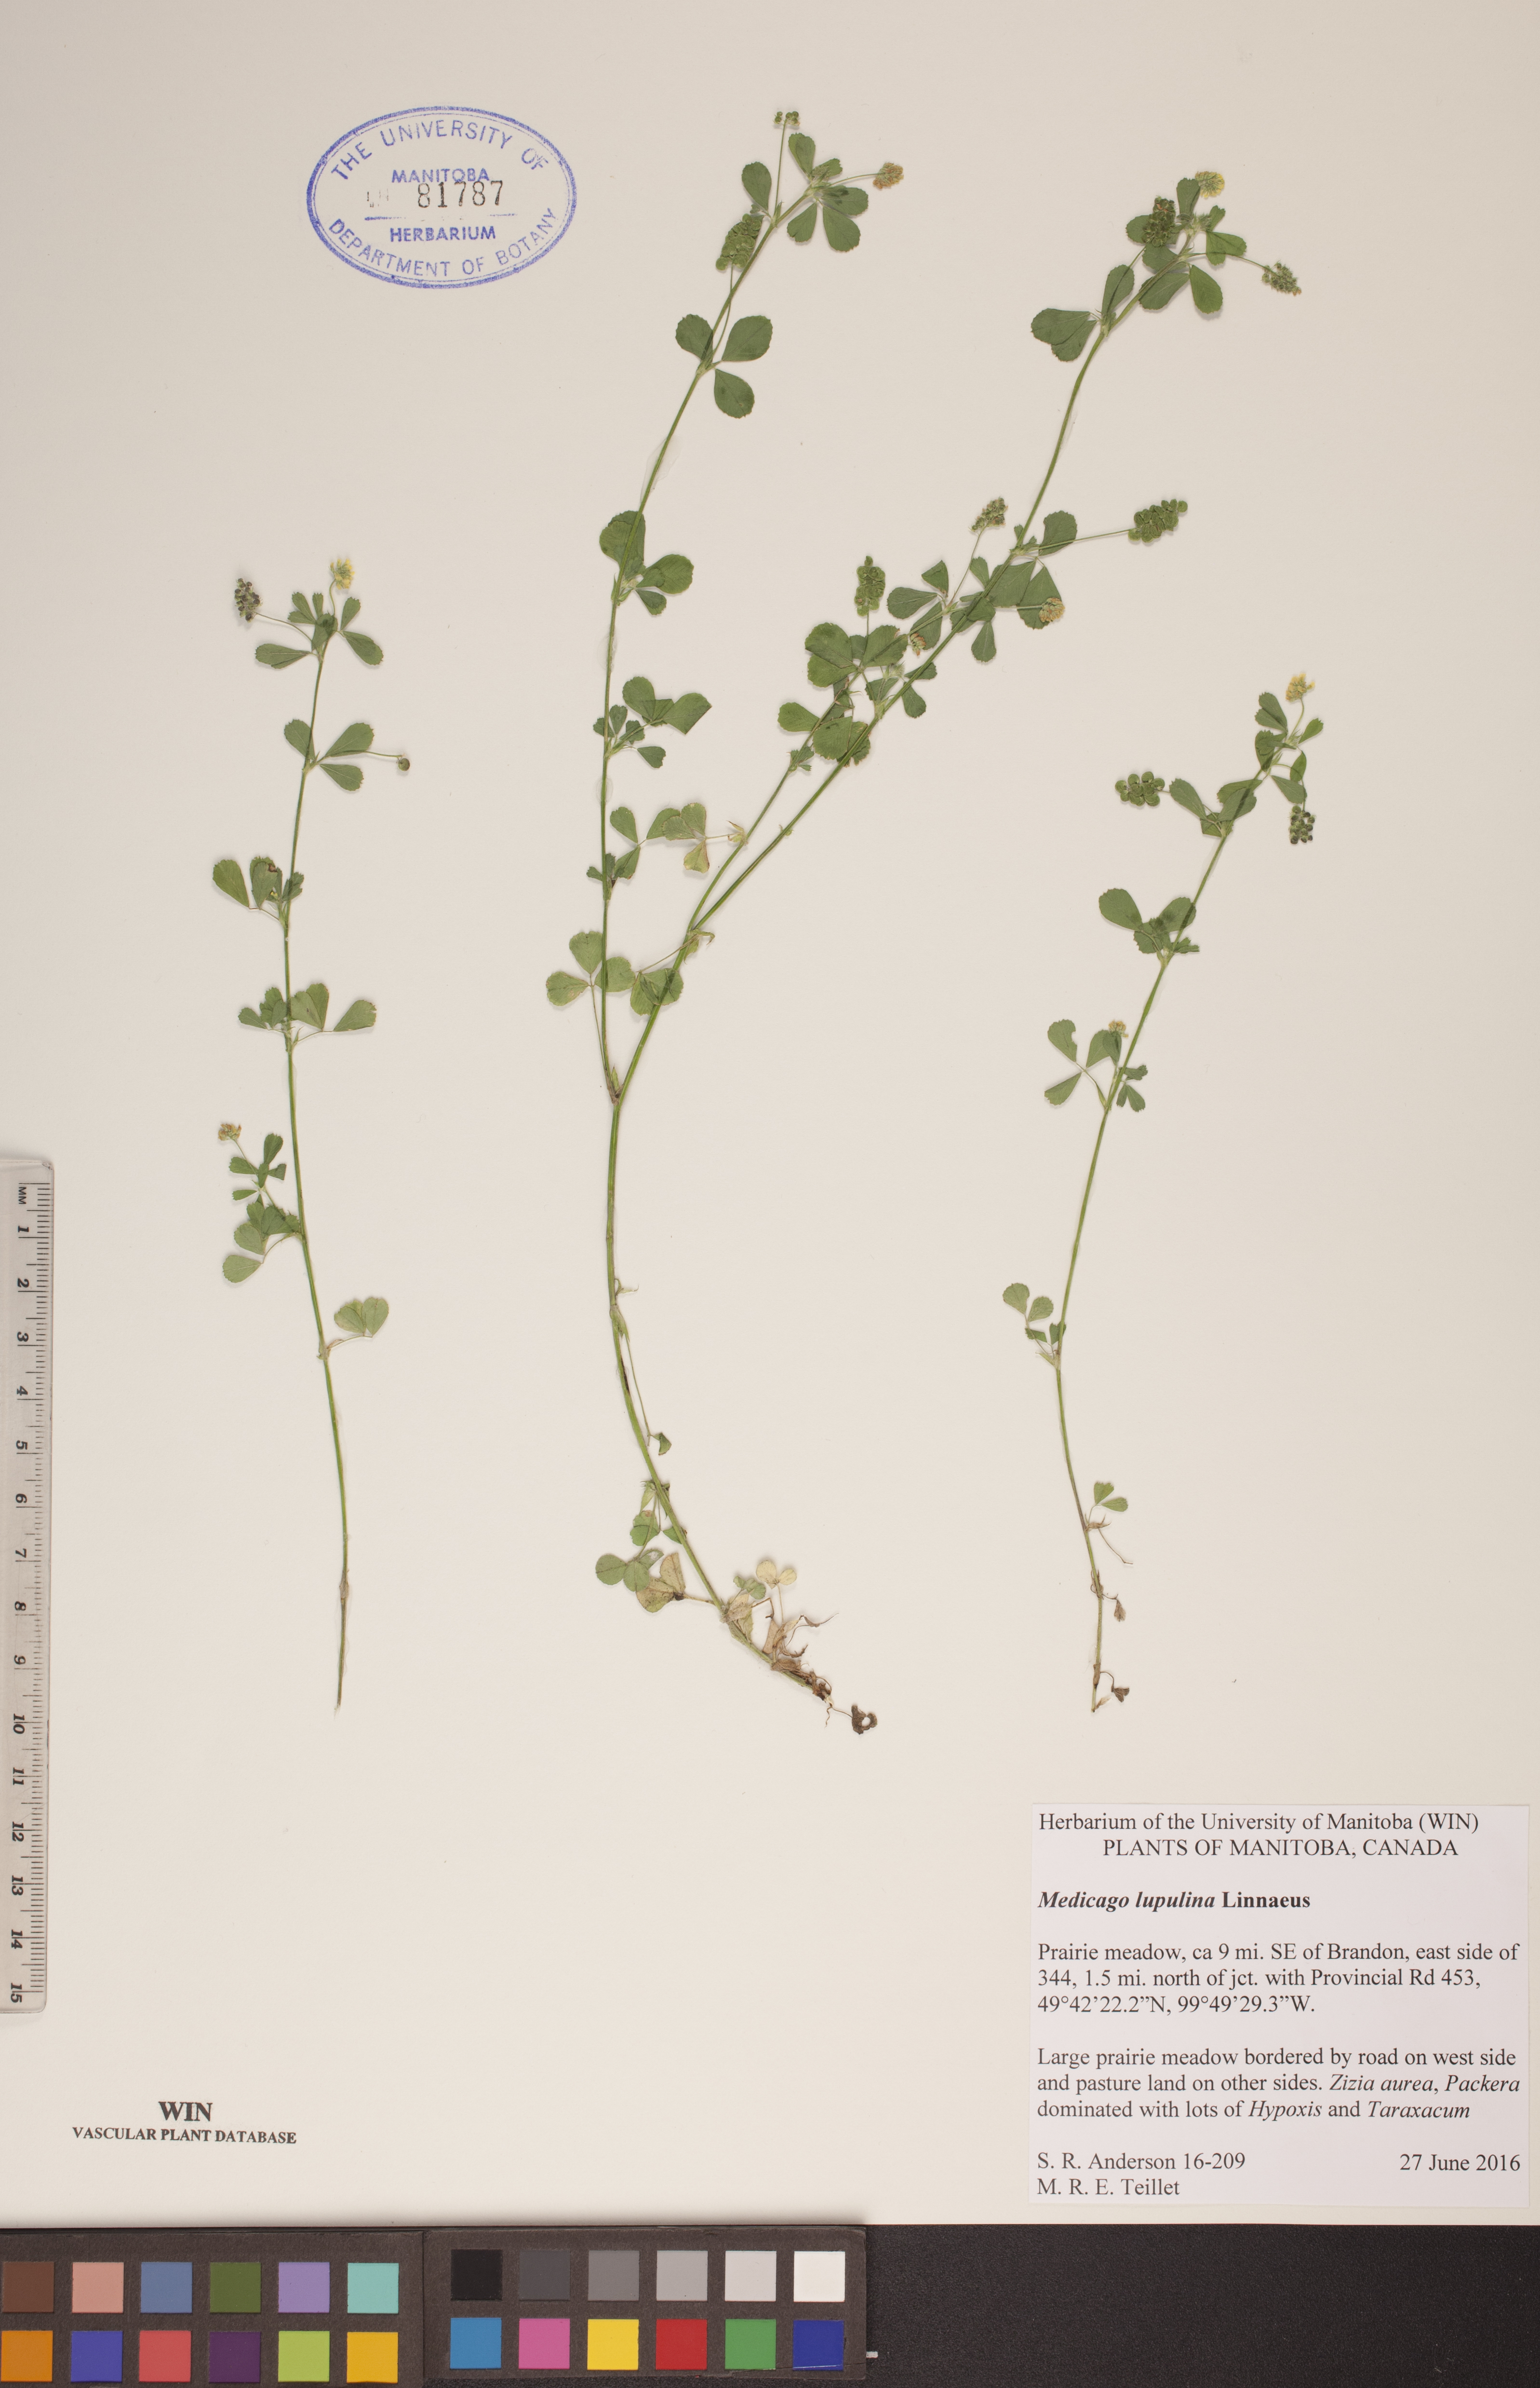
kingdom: Plantae
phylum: Tracheophyta
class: Magnoliopsida
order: Fabales
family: Fabaceae
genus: Medicago
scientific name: Medicago lupulina
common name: Black medick
